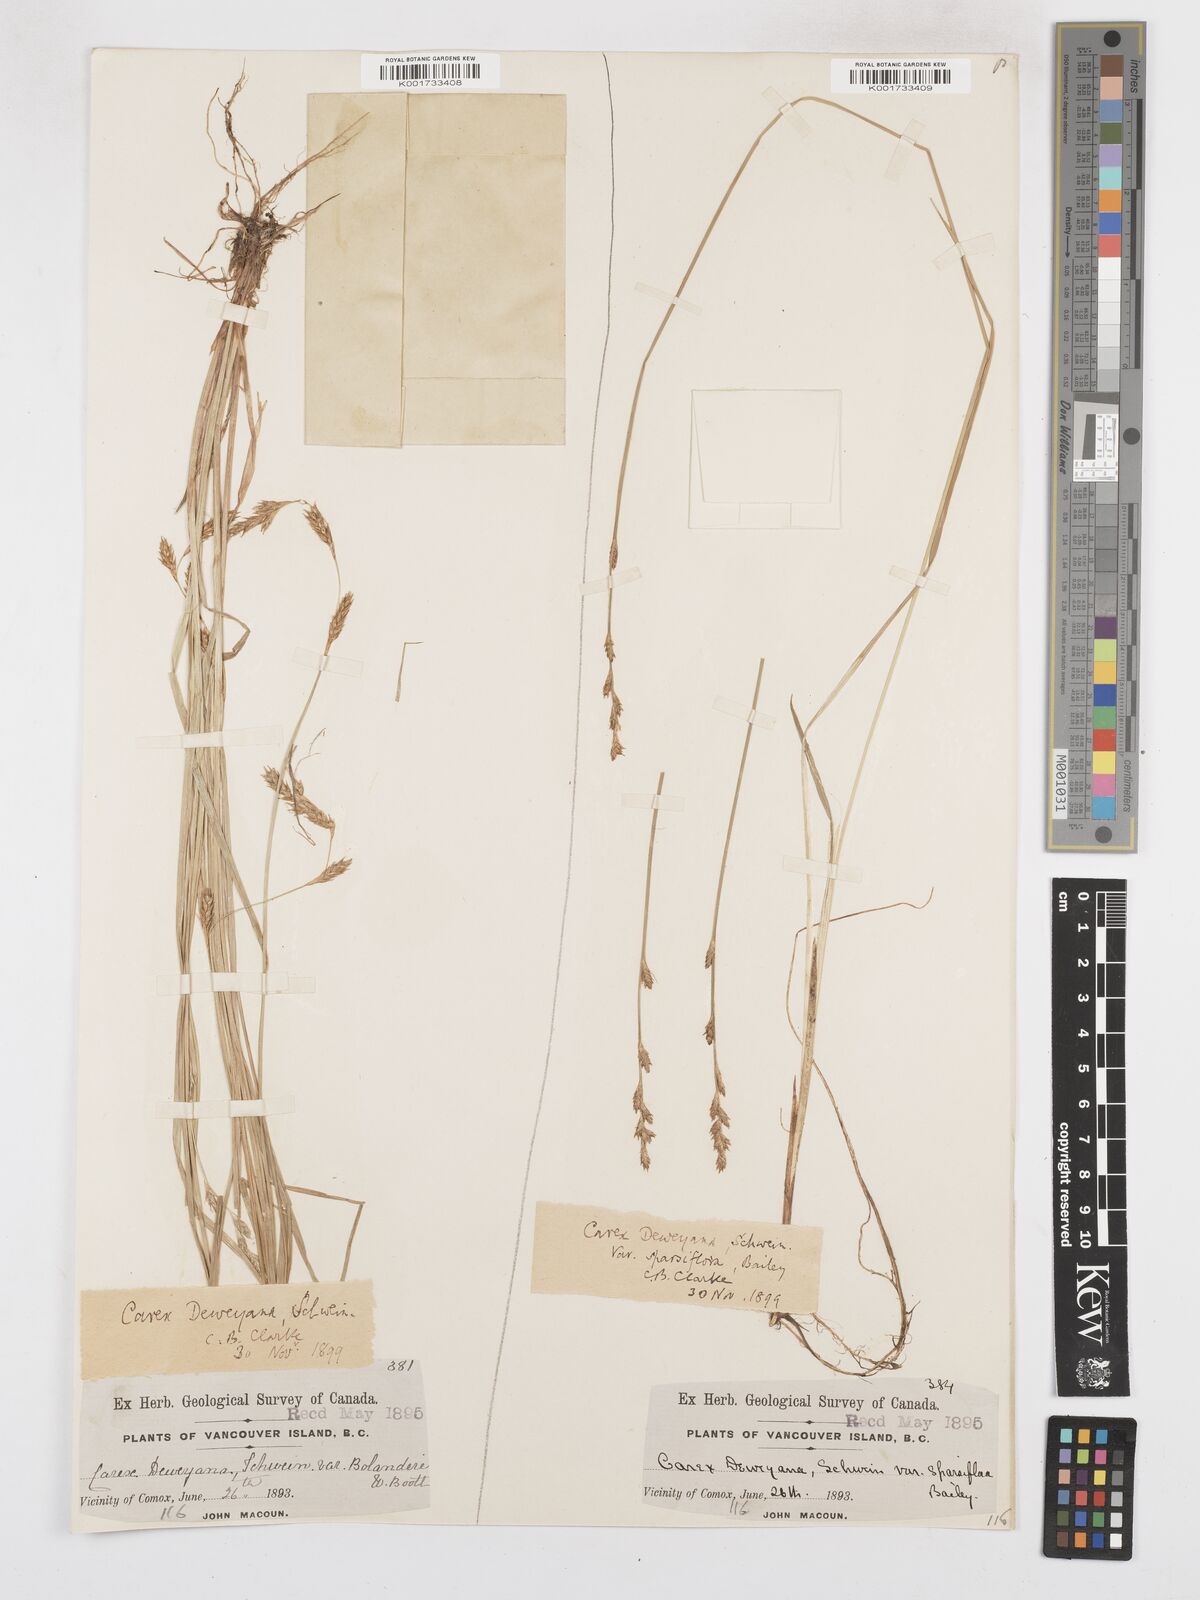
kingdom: Plantae
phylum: Tracheophyta
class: Liliopsida
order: Poales
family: Cyperaceae
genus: Carex
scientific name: Carex deweyana
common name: Dewey's sedge
